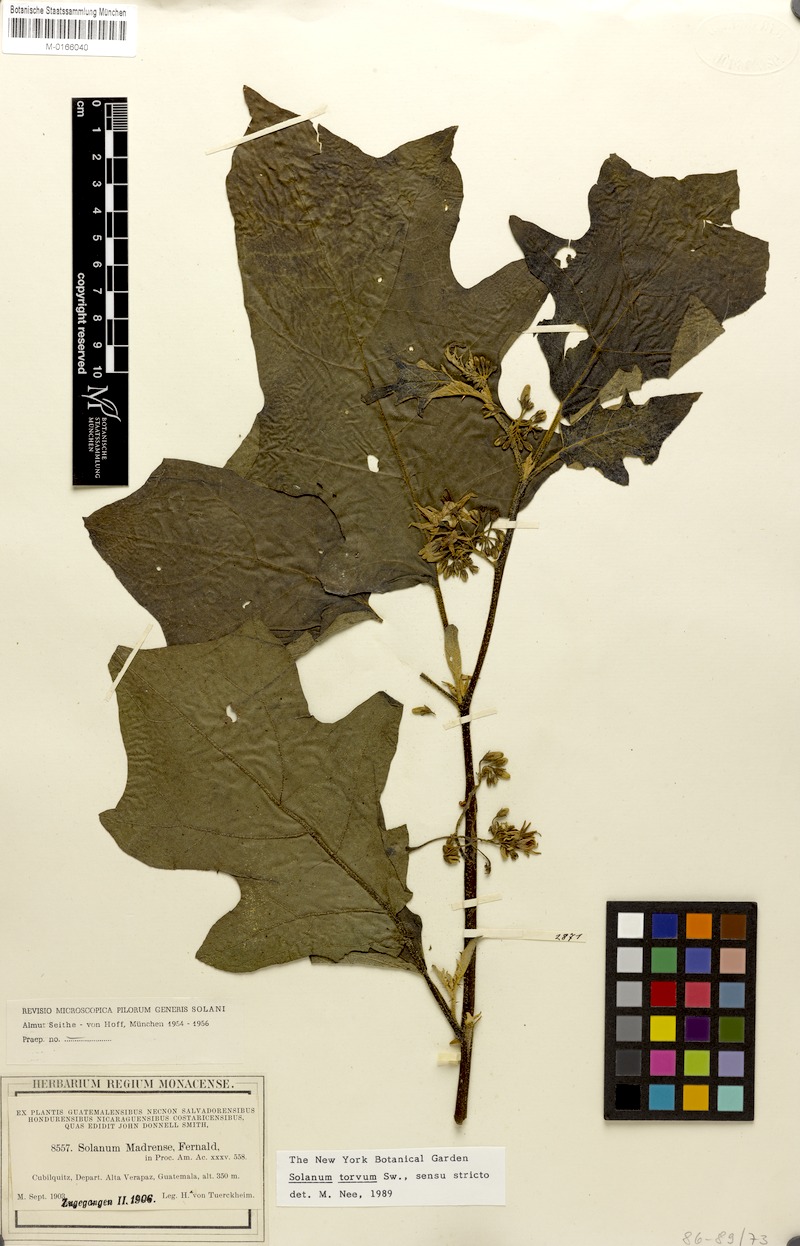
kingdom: Plantae
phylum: Tracheophyta
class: Magnoliopsida
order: Solanales
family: Solanaceae
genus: Solanum
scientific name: Solanum torvum
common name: Turkey berry
